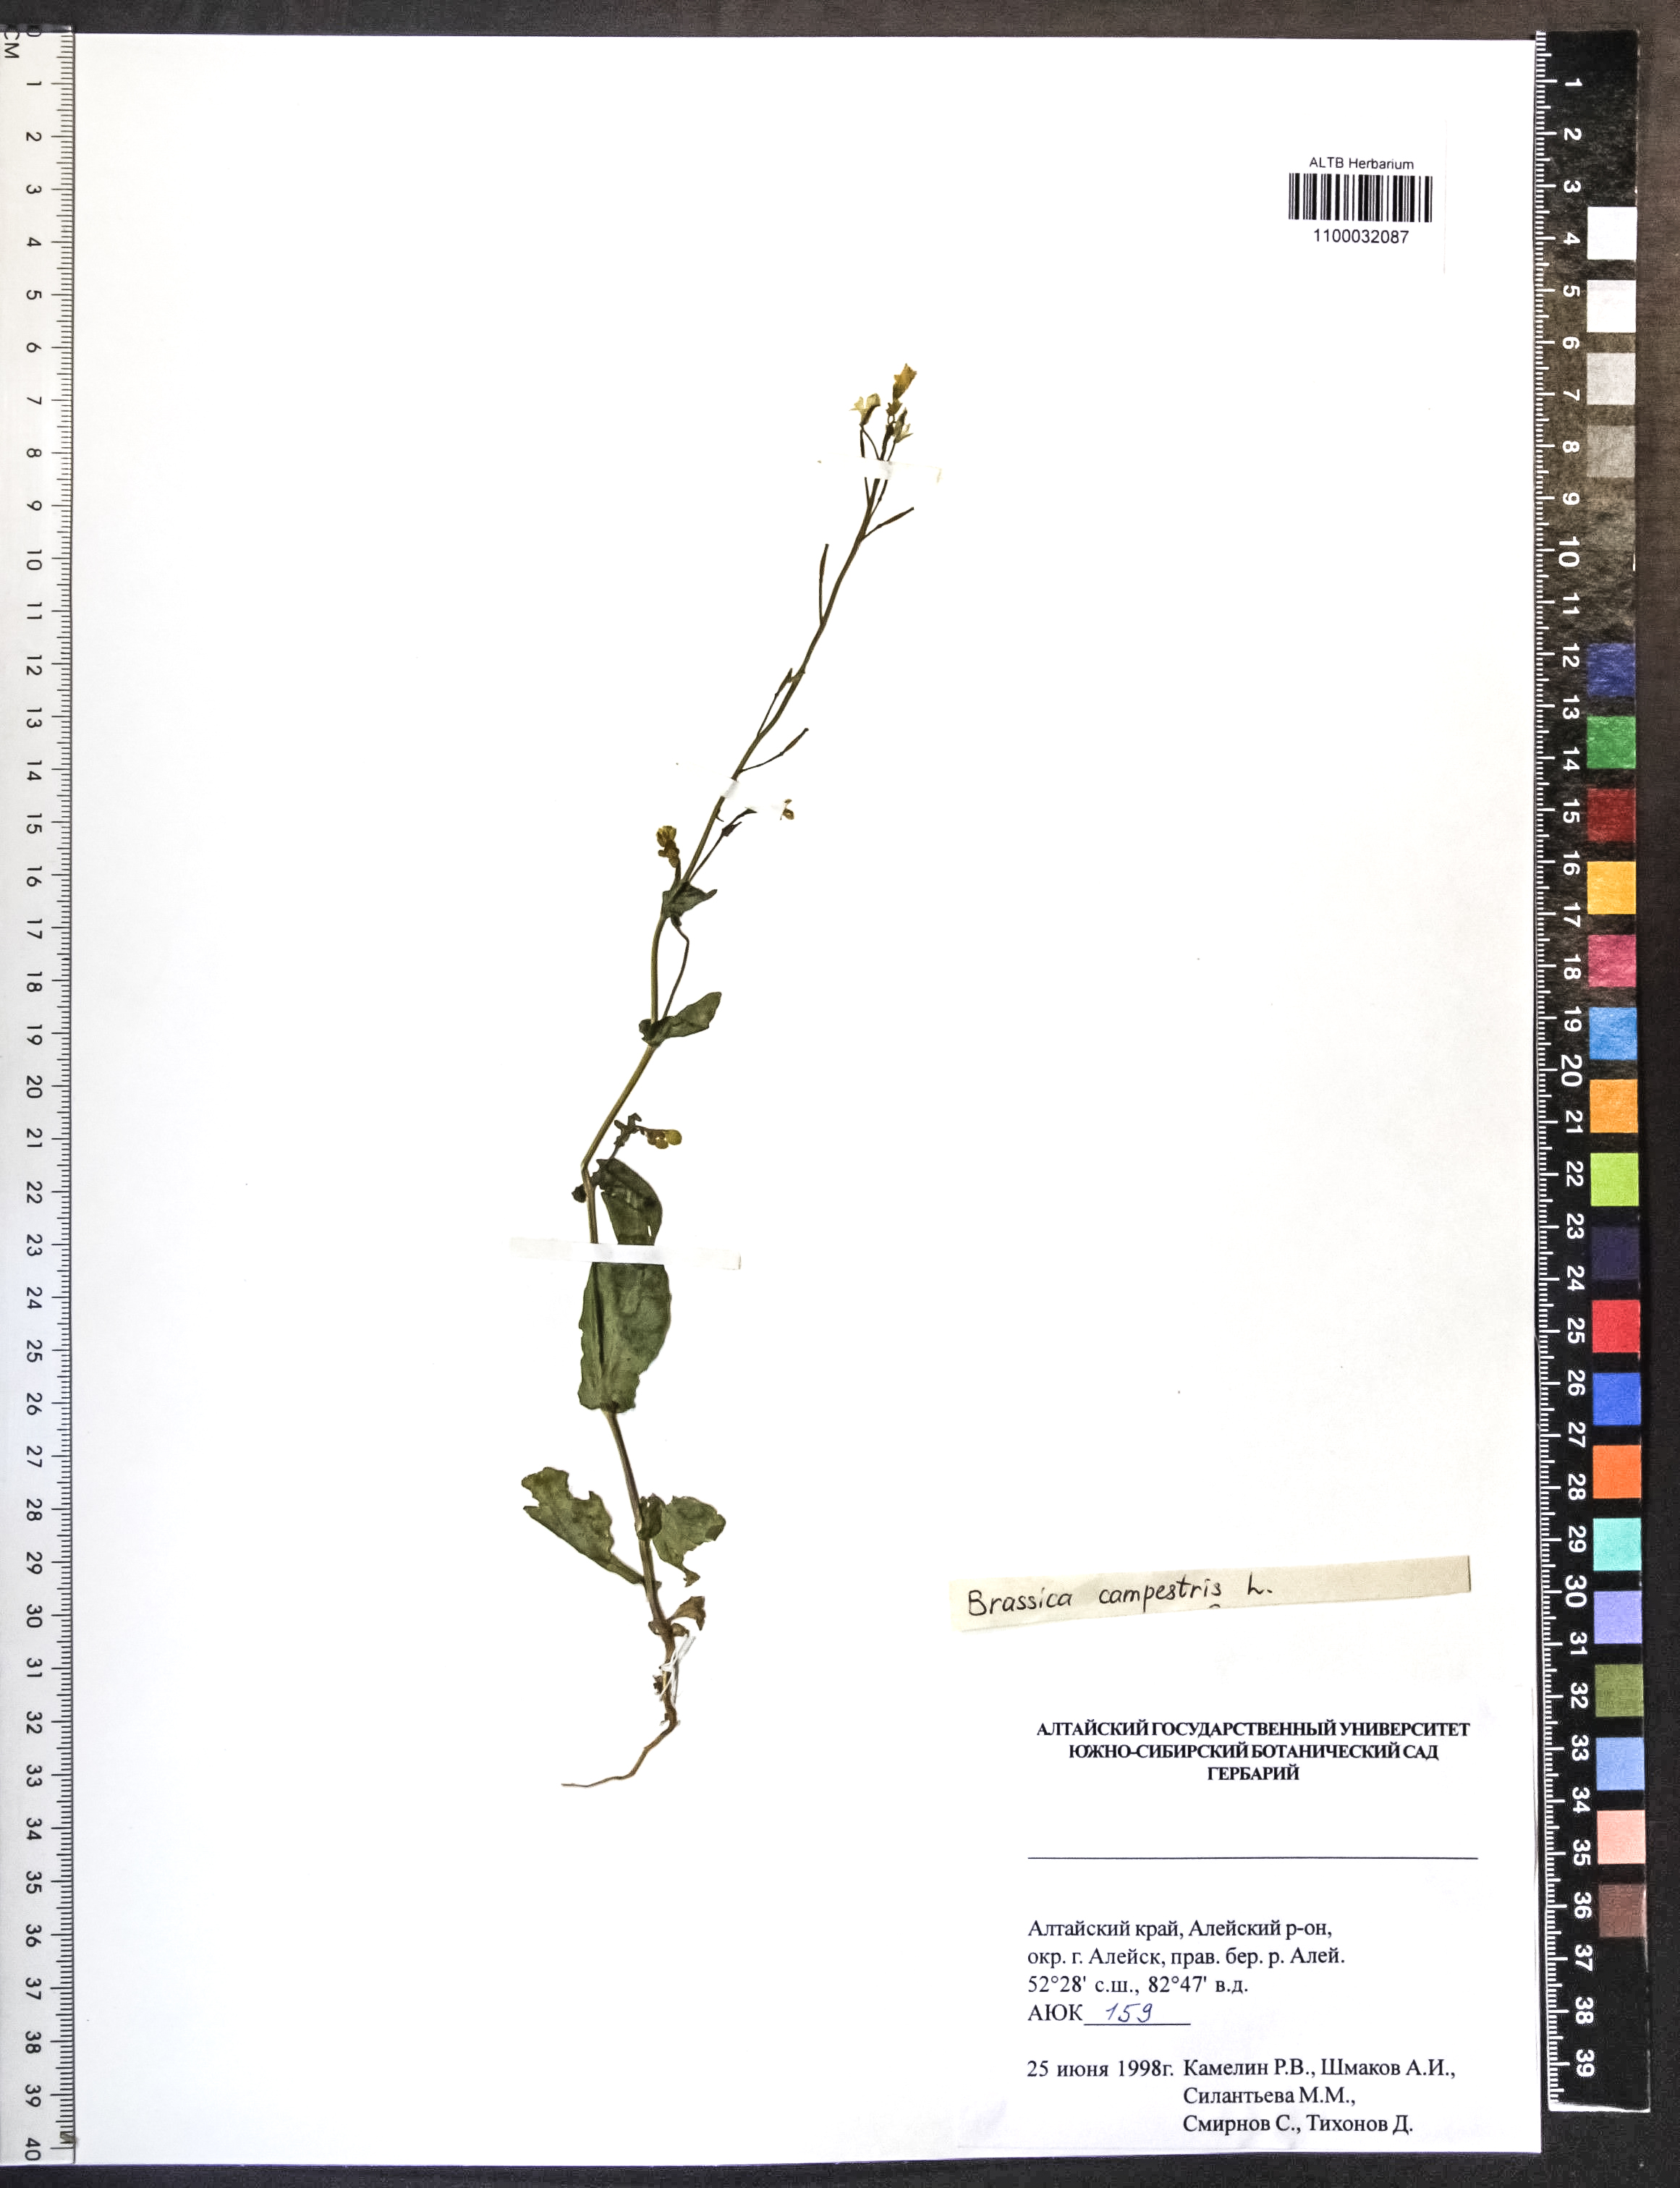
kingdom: Plantae
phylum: Tracheophyta
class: Magnoliopsida
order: Brassicales
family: Brassicaceae
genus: Brassica
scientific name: Brassica rapa
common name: Field mustard
